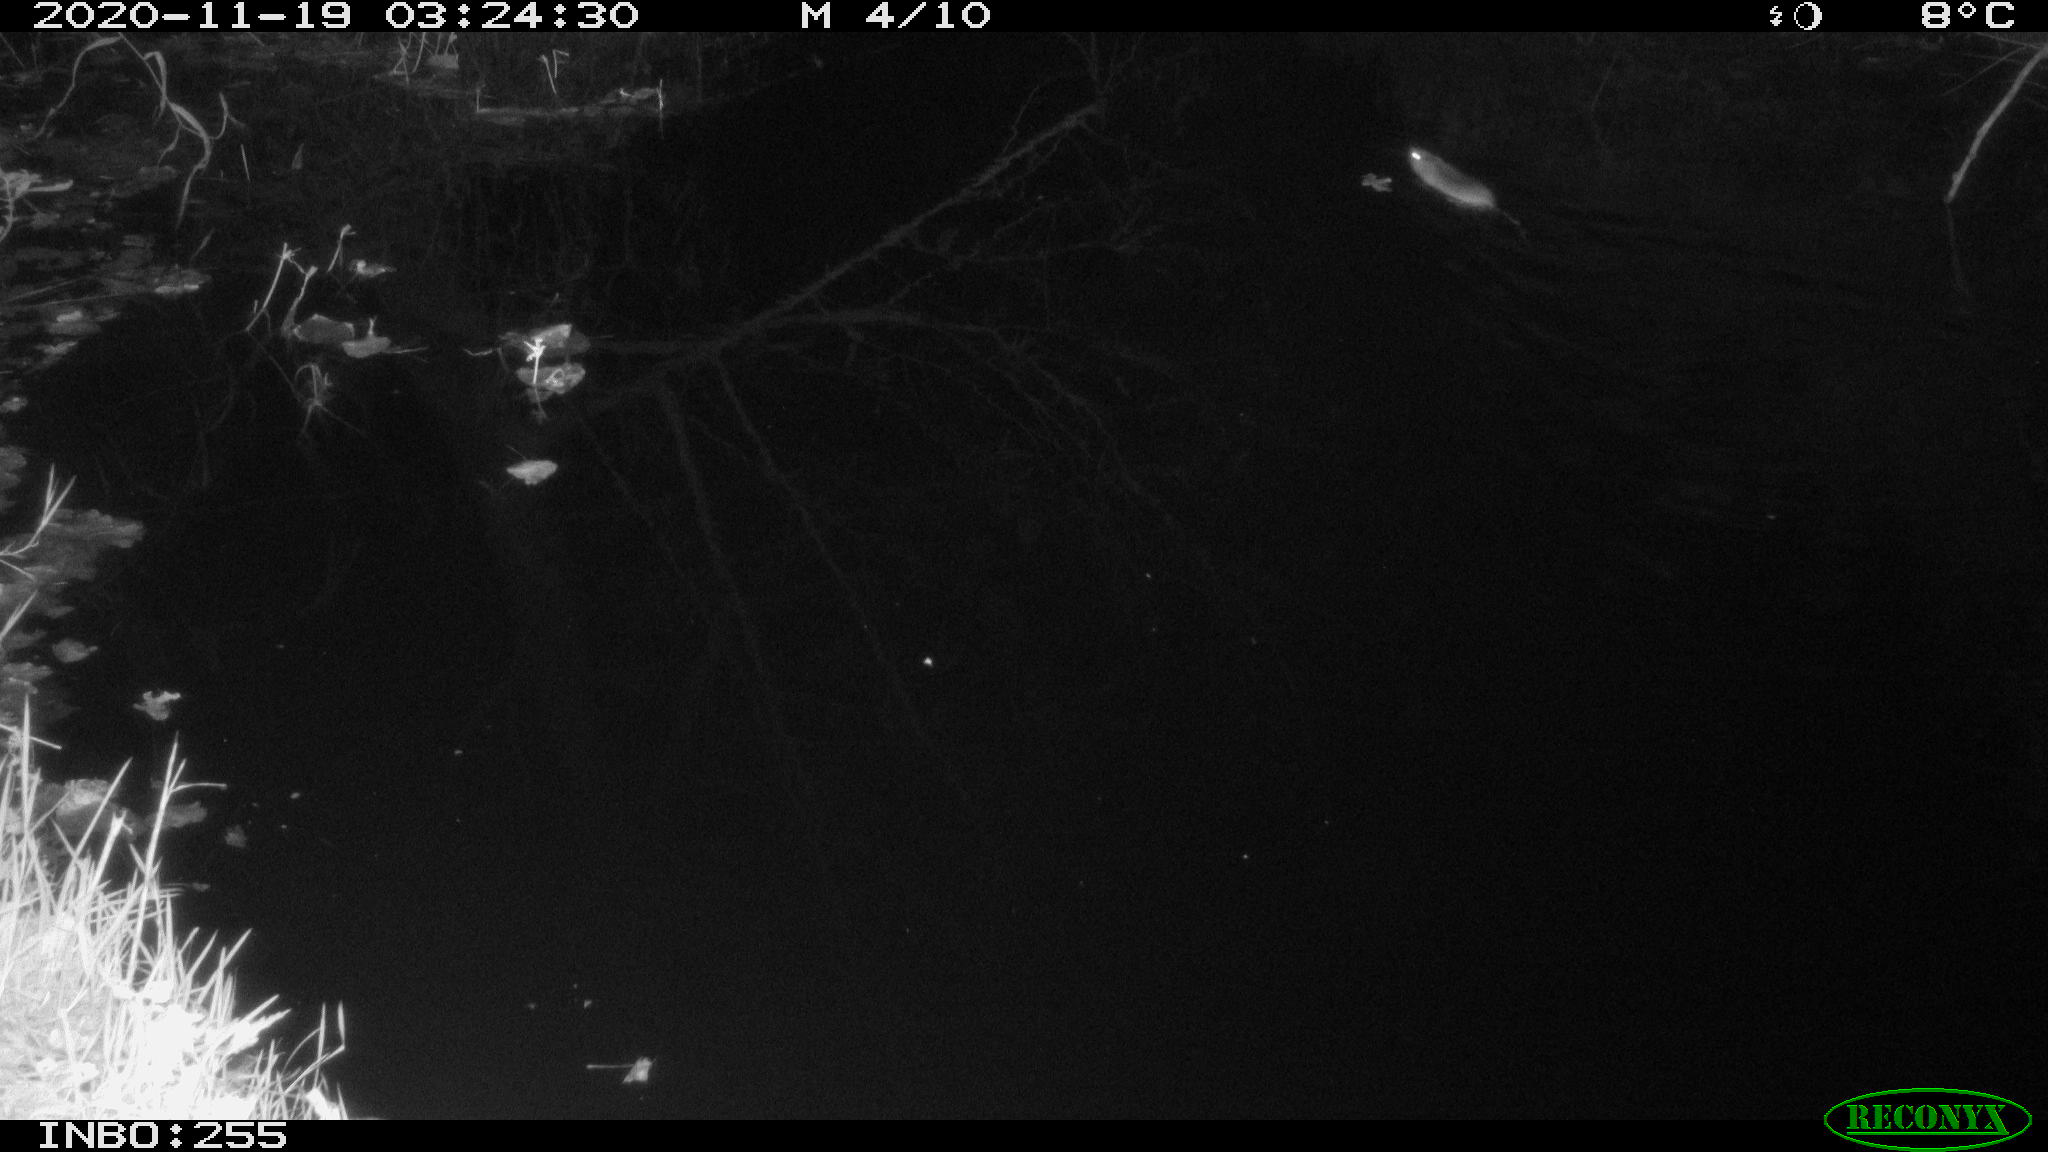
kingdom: Animalia
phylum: Chordata
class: Mammalia
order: Rodentia
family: Muridae
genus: Rattus
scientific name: Rattus norvegicus
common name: Brown rat
